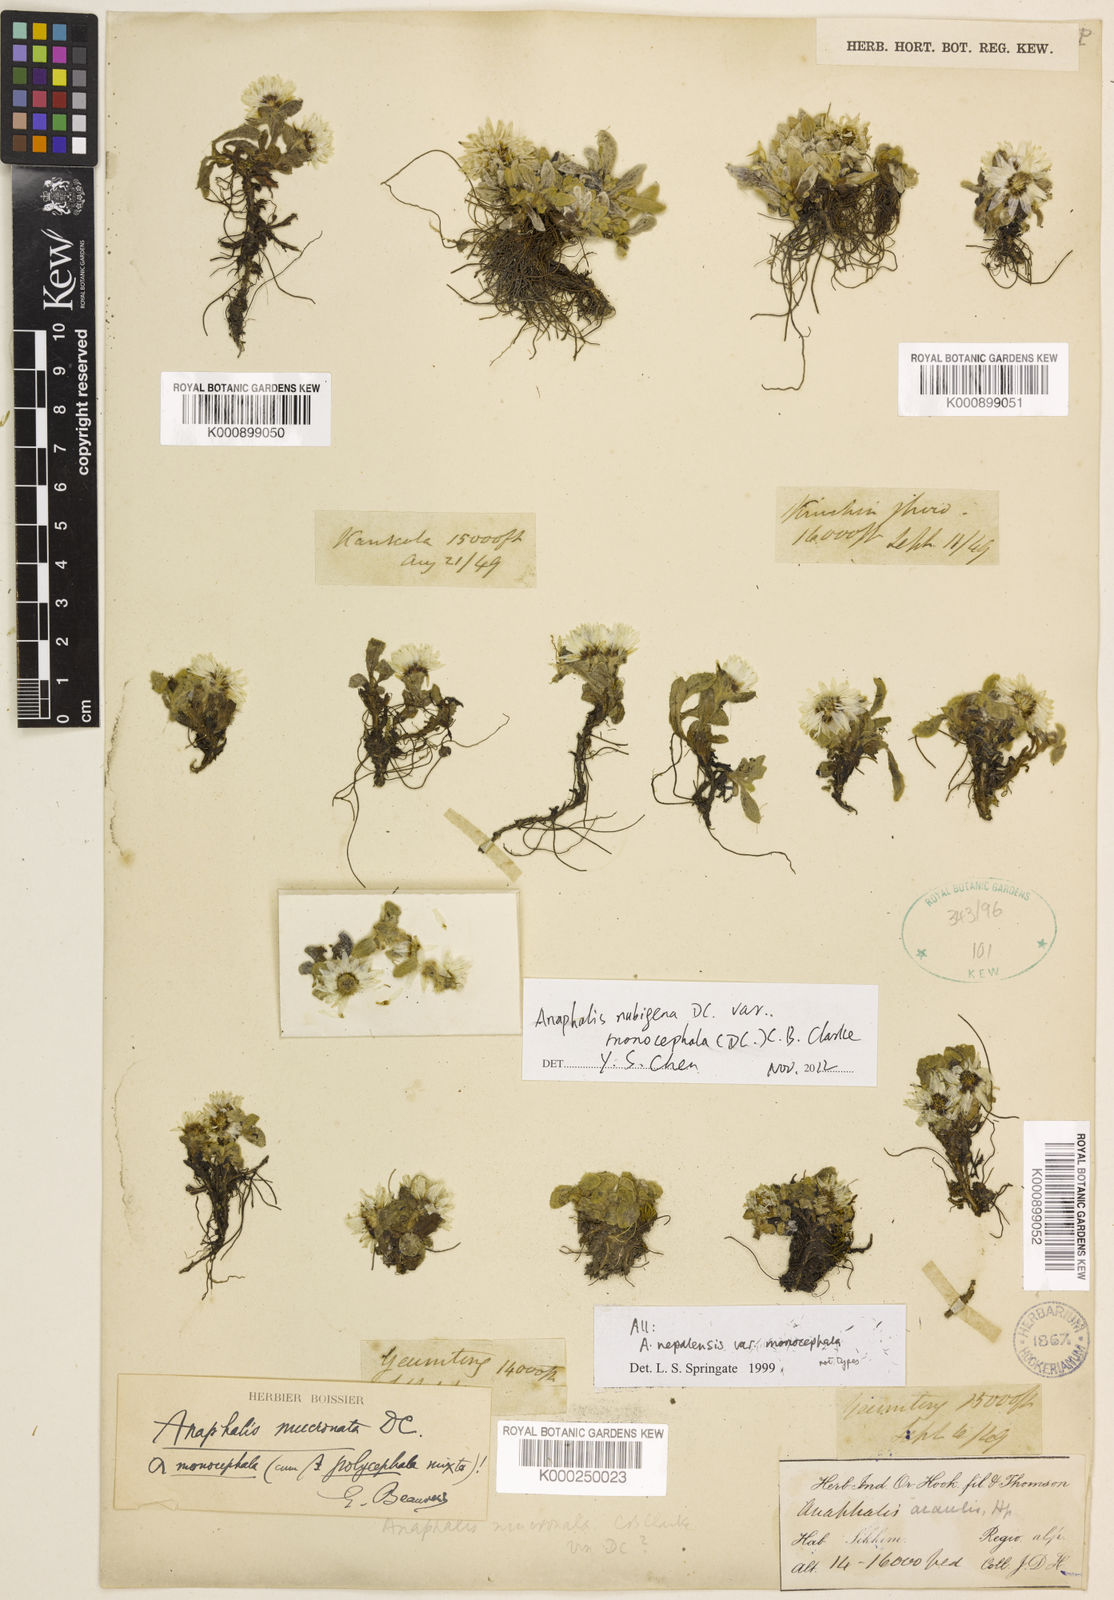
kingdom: Plantae
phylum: Tracheophyta
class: Magnoliopsida
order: Asterales
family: Asteraceae
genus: Anaphalis
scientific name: Anaphalis nepalensis
